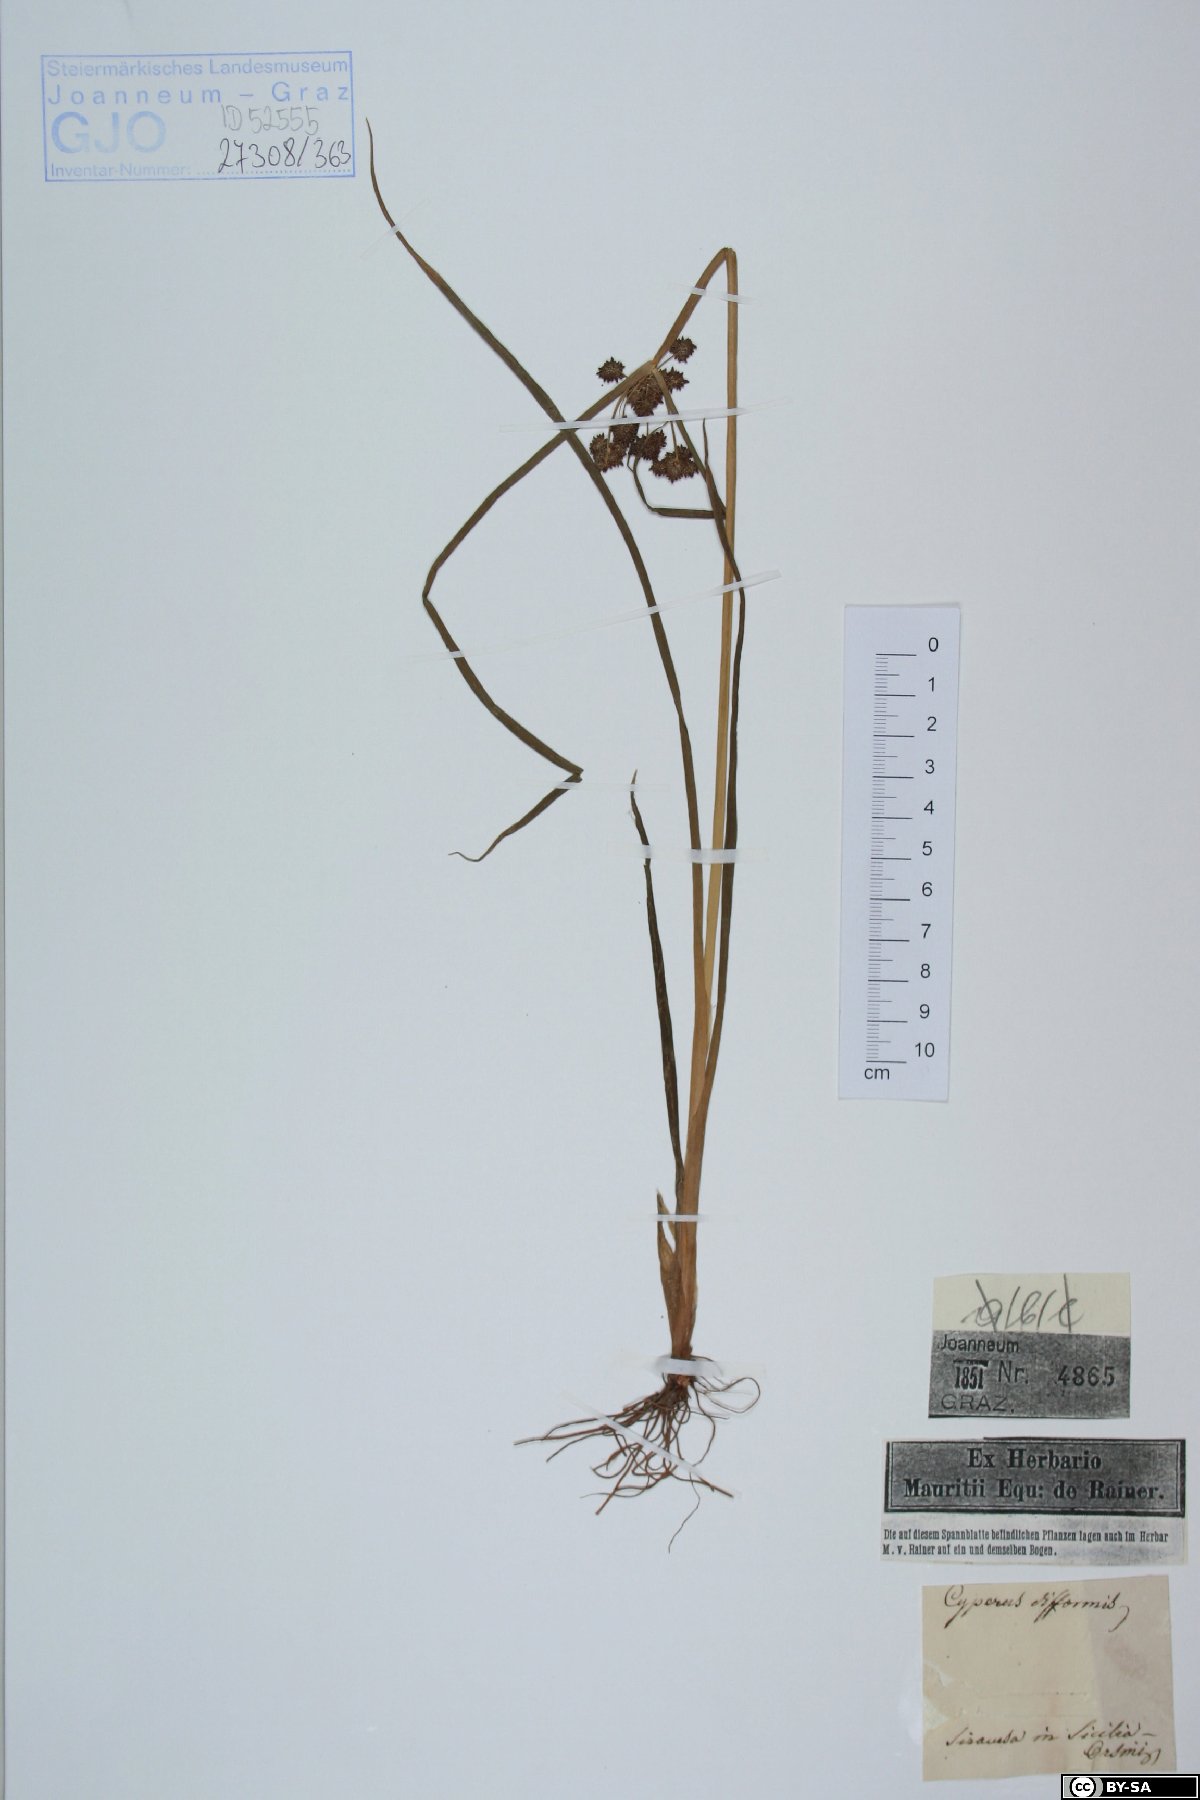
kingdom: Plantae
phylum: Tracheophyta
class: Liliopsida
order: Poales
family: Cyperaceae
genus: Cyperus
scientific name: Cyperus difformis
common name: Variable flatsedge
